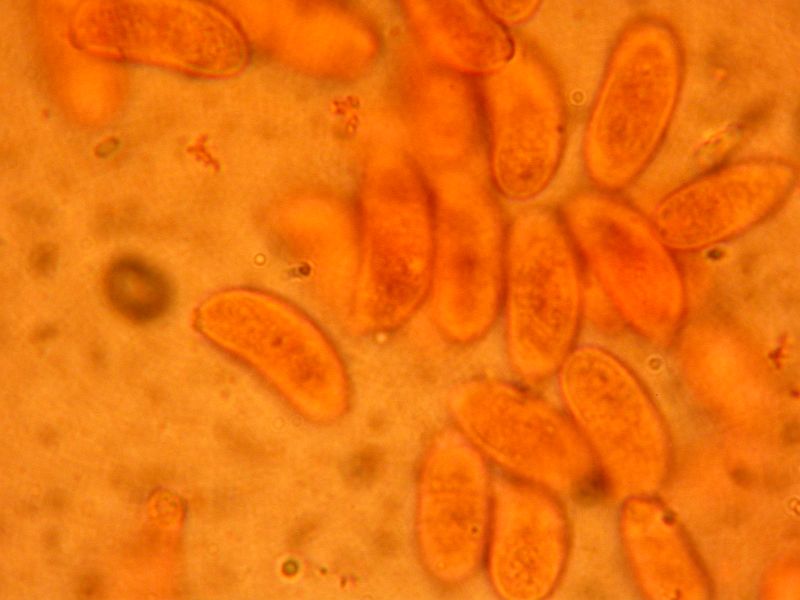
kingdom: Fungi
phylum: Basidiomycota
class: Dacrymycetes
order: Dacrymycetales
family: Dacrymycetaceae
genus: Dacrymyces
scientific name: Dacrymyces capitatus
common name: stilket tåresvamp
